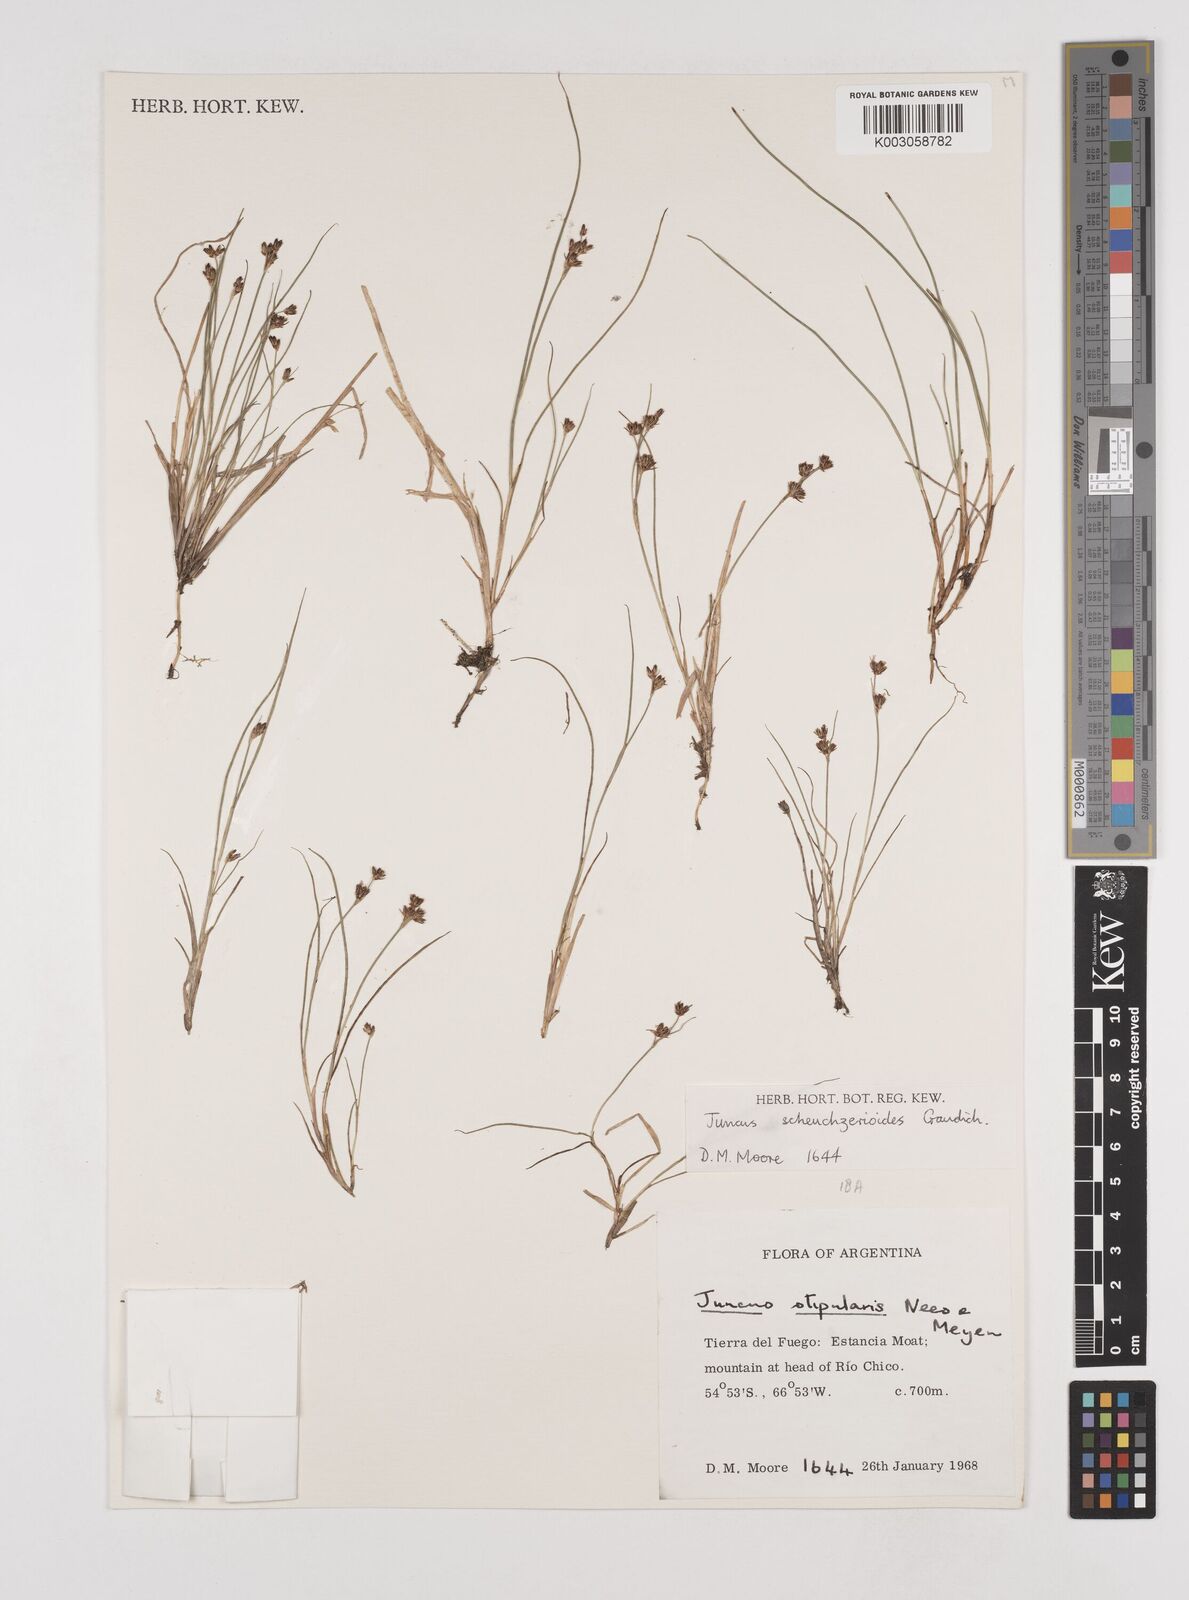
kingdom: Plantae
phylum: Tracheophyta
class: Liliopsida
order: Poales
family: Juncaceae
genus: Juncus
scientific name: Juncus scheuchzerioides
